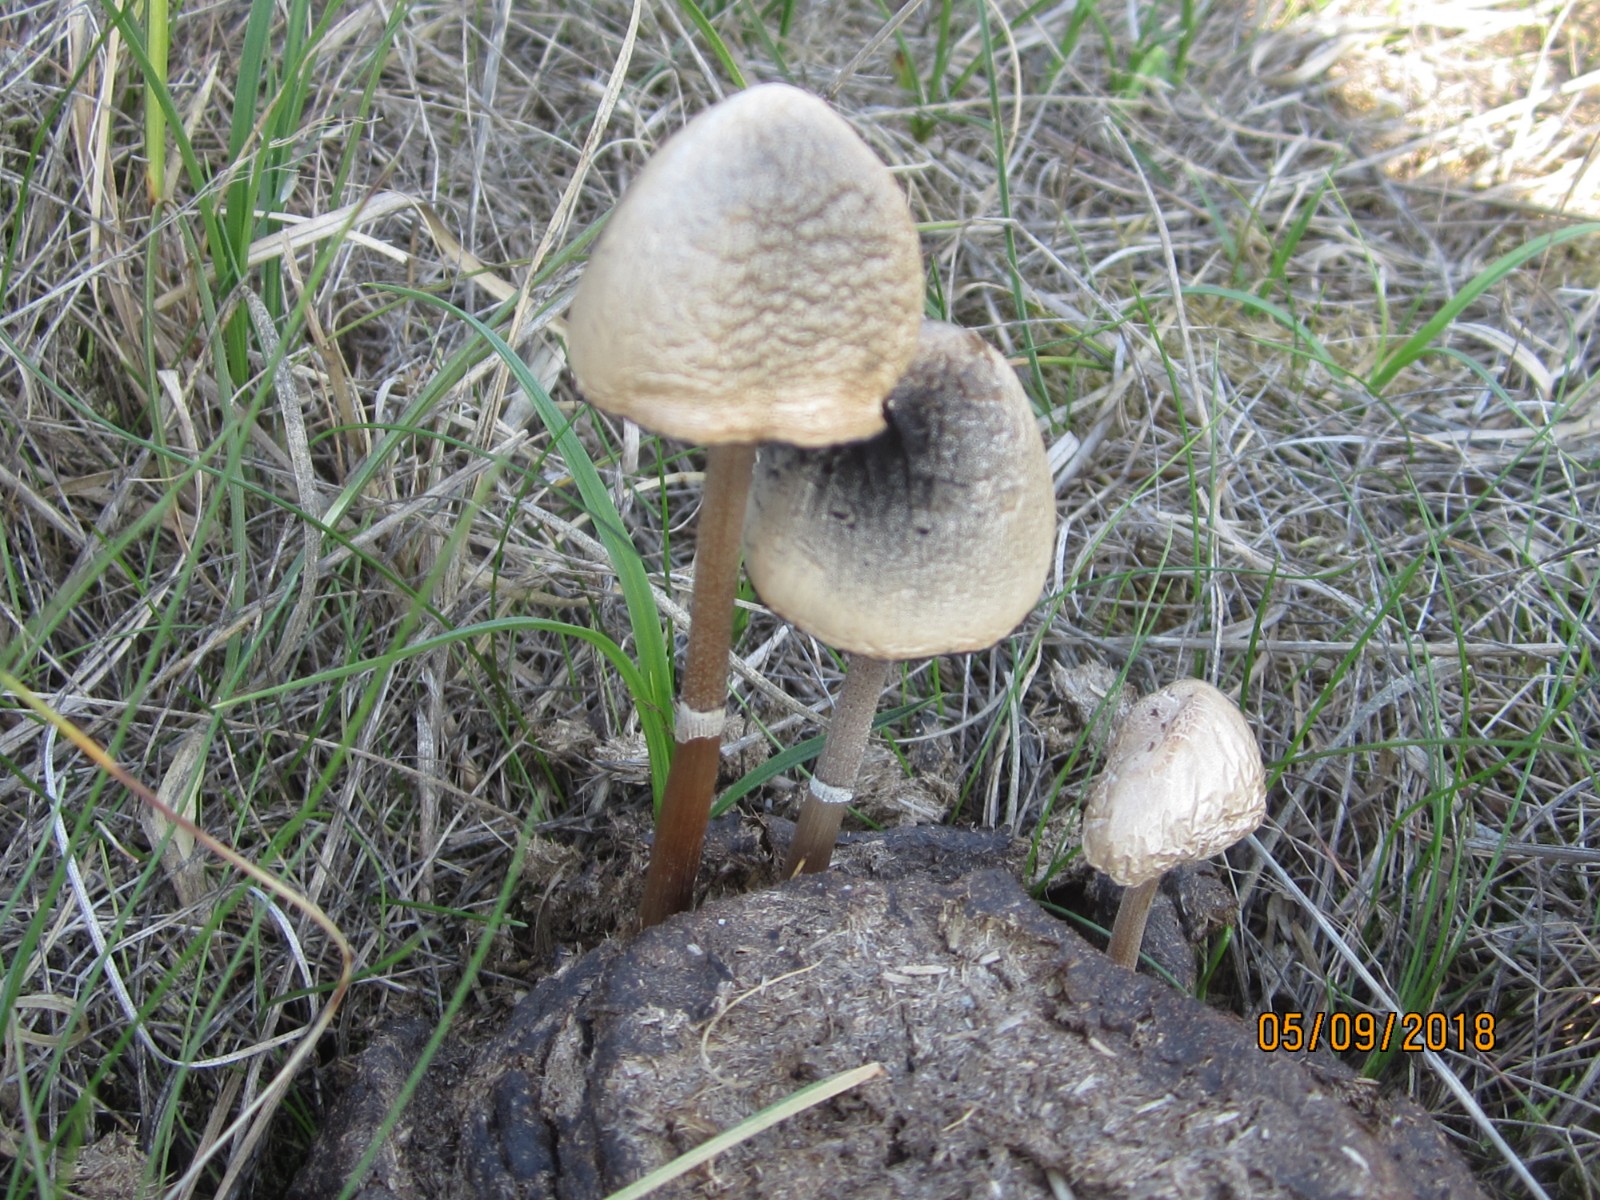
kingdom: Fungi
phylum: Basidiomycota
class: Agaricomycetes
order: Agaricales
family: Bolbitiaceae
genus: Panaeolus
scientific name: Panaeolus semiovatus
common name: ring-glanshat
